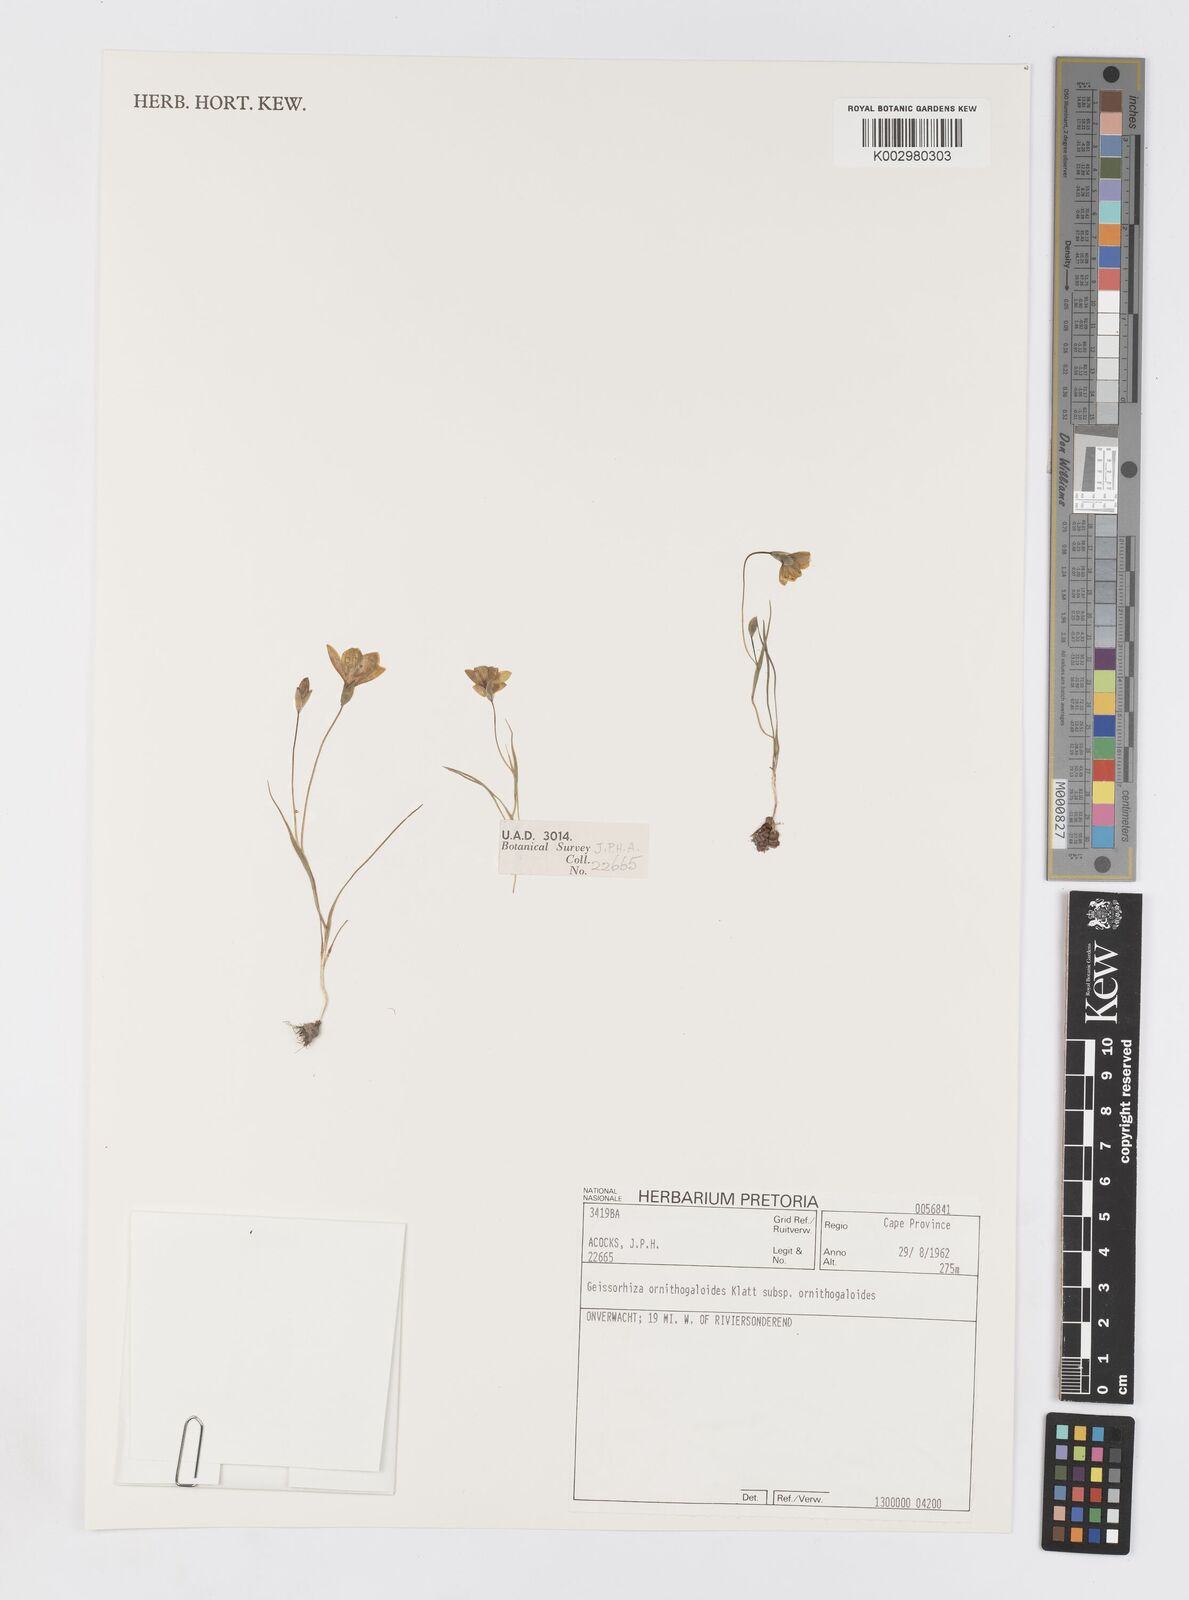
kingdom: Plantae
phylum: Tracheophyta
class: Liliopsida
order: Asparagales
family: Iridaceae
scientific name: Iridaceae
